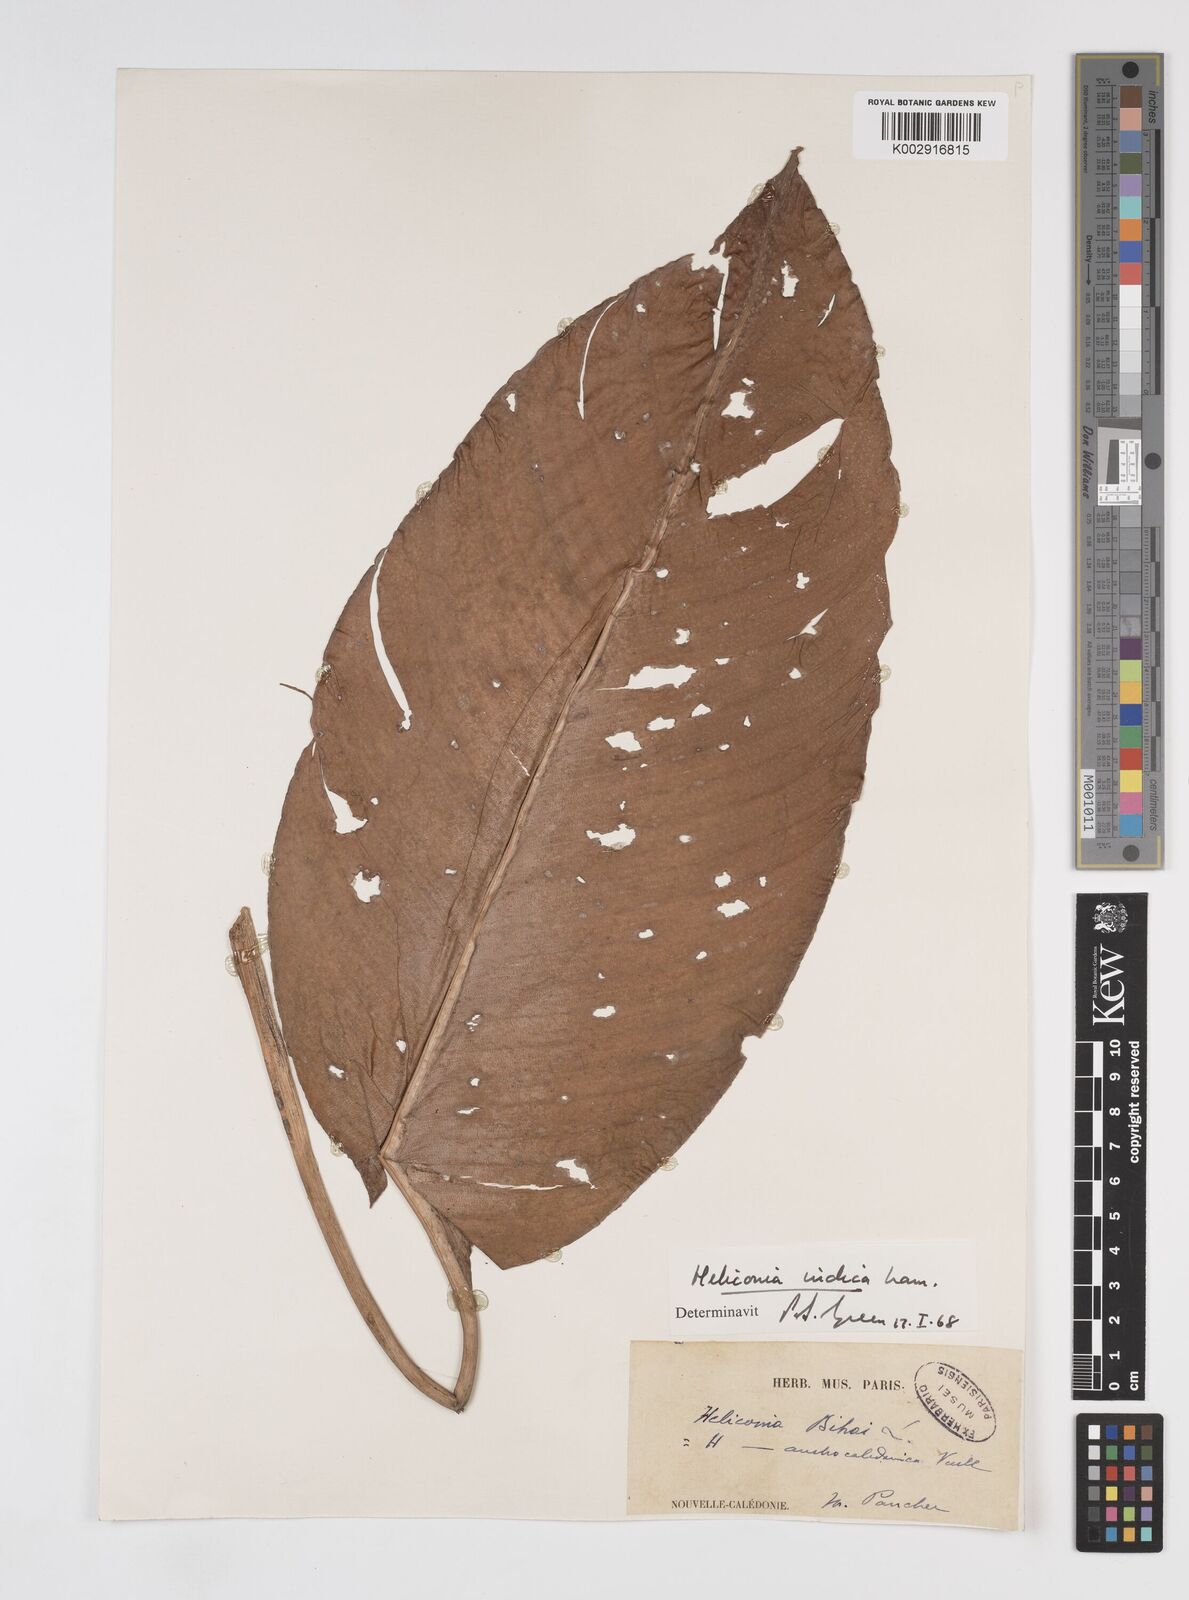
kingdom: Plantae
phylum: Tracheophyta
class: Liliopsida
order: Zingiberales
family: Heliconiaceae
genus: Heliconia
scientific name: Heliconia indica
